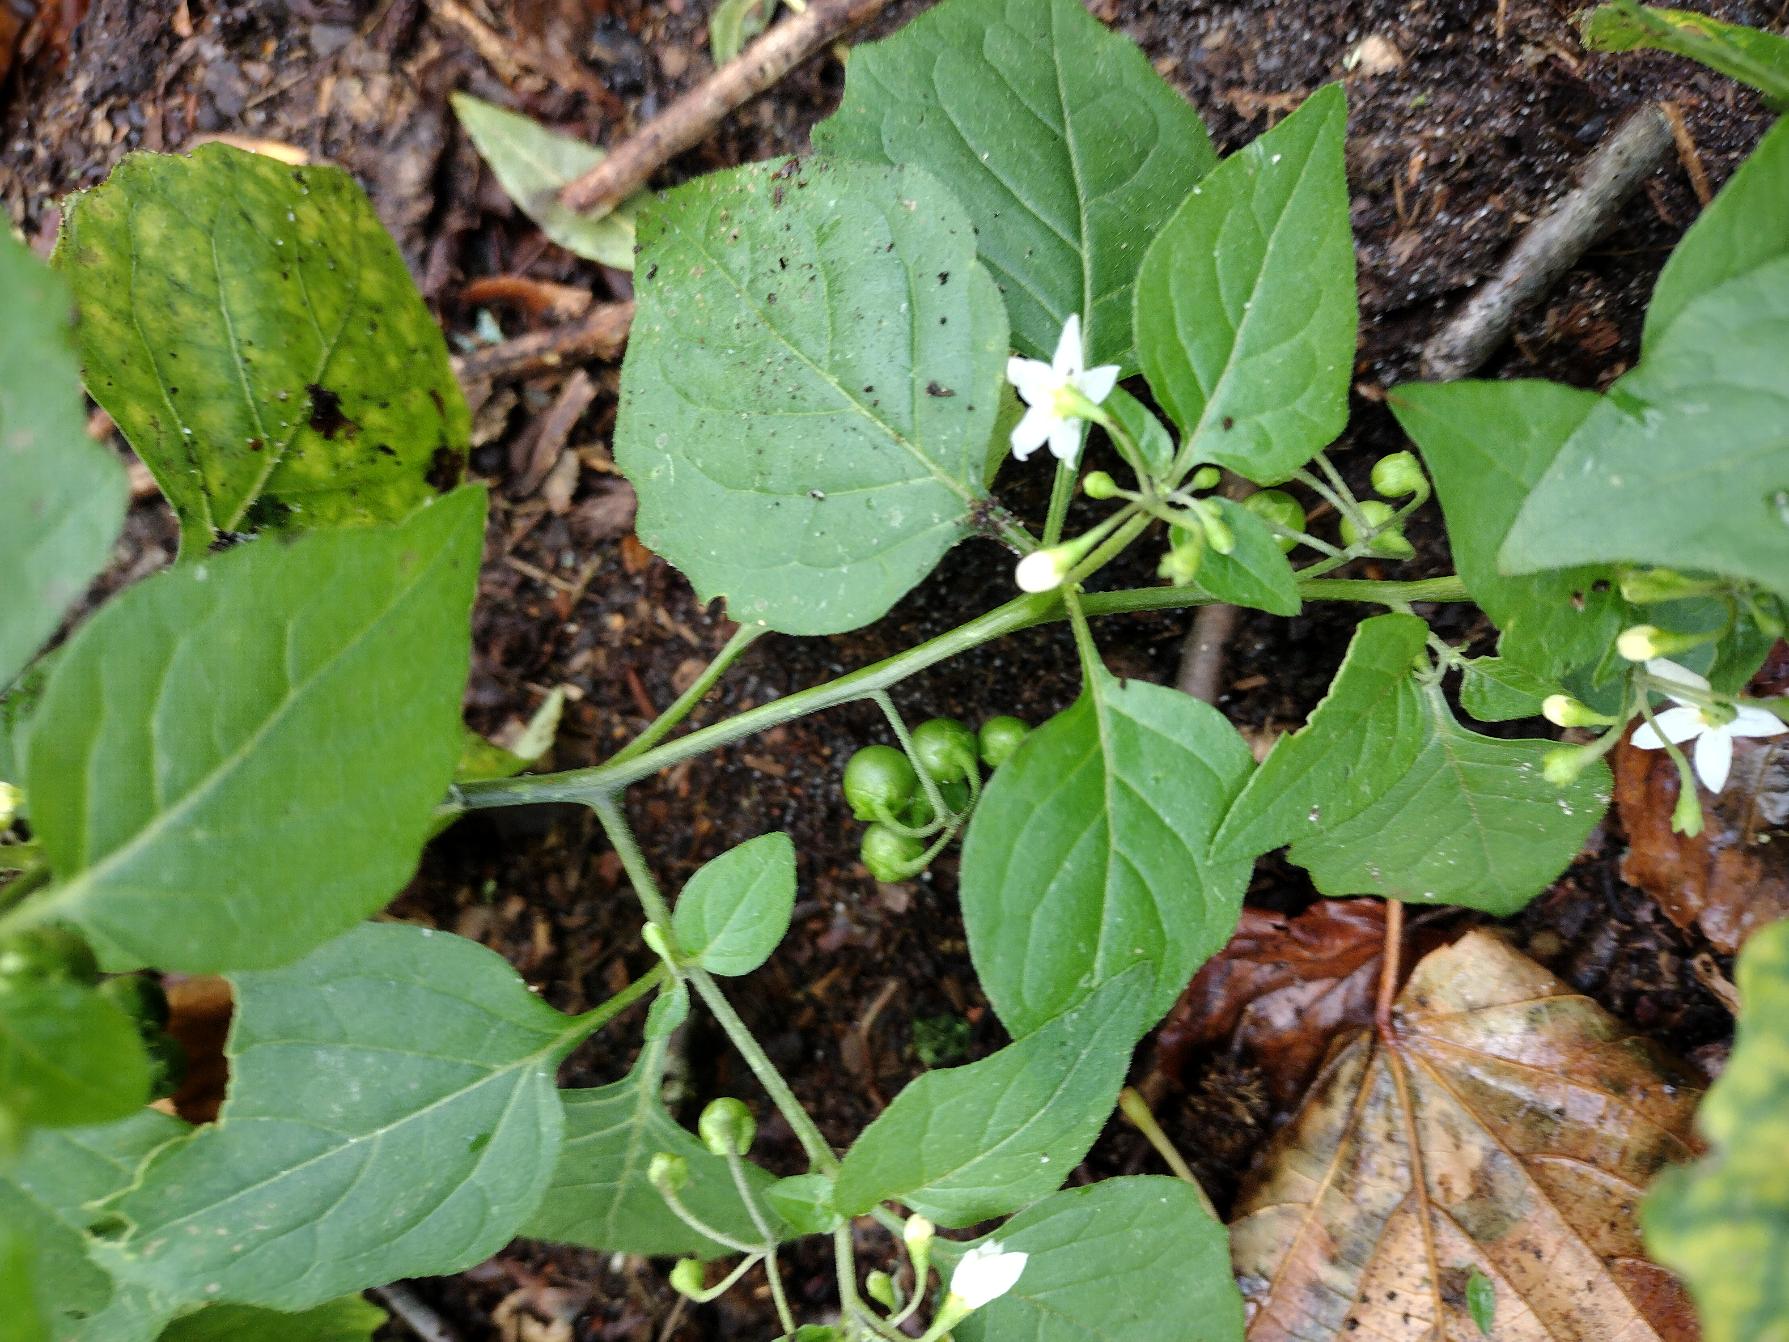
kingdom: Plantae
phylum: Tracheophyta
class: Magnoliopsida
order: Solanales
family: Solanaceae
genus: Solanum
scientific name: Solanum nigrum
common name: Sort natskygge
